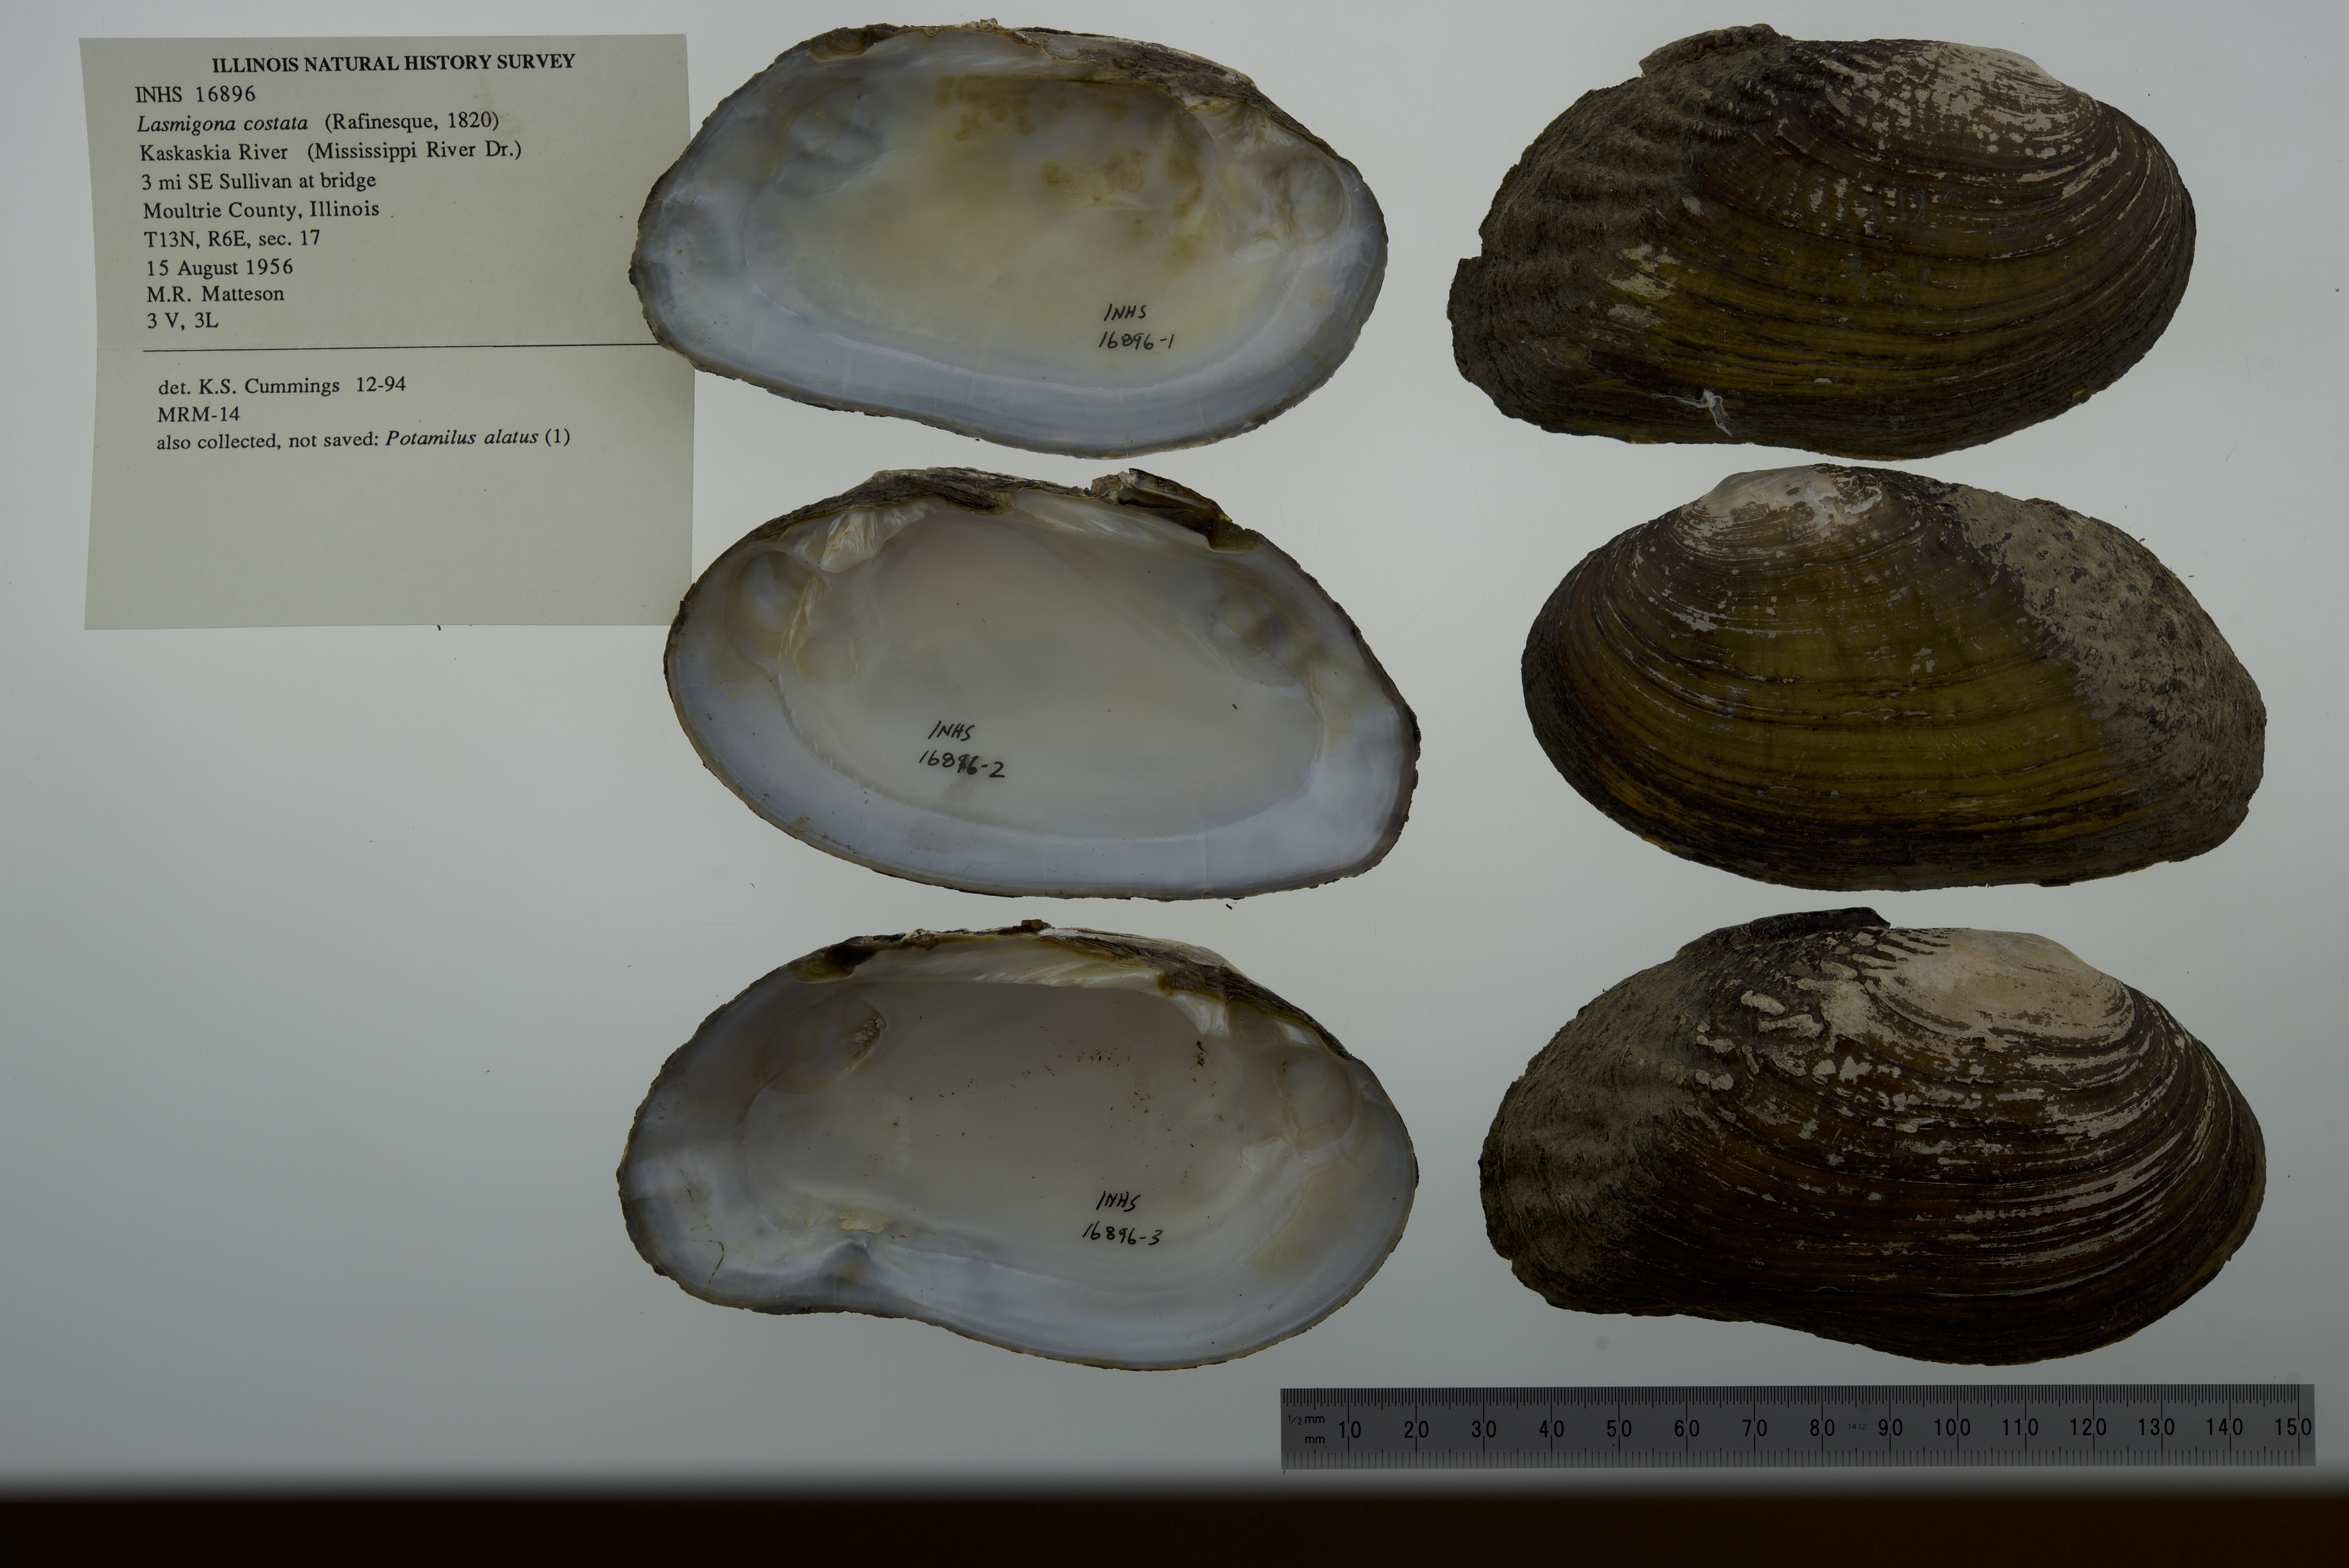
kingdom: Animalia
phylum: Mollusca
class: Bivalvia
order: Unionida
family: Unionidae
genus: Lasmigona
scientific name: Lasmigona costata
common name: Flutedshell
